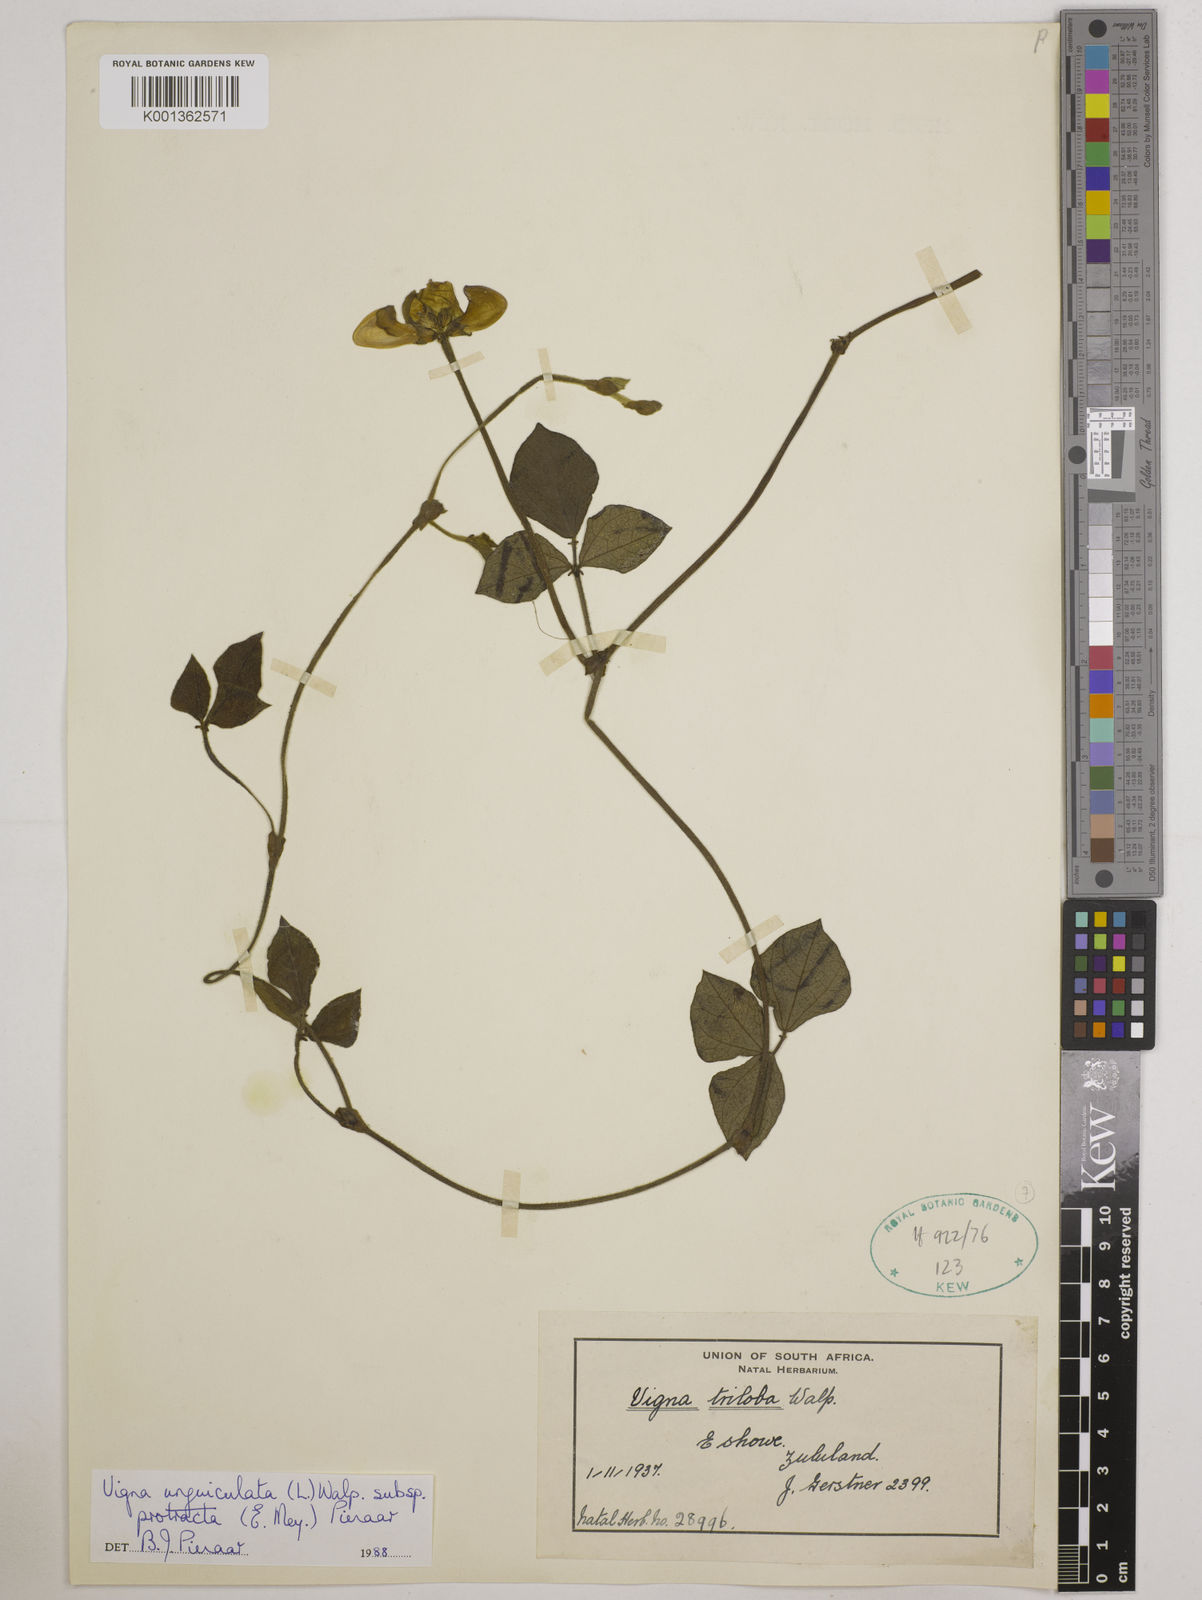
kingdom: Plantae
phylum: Tracheophyta
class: Magnoliopsida
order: Fabales
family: Fabaceae
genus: Vigna
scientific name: Vigna unguiculata
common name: Cowpea
